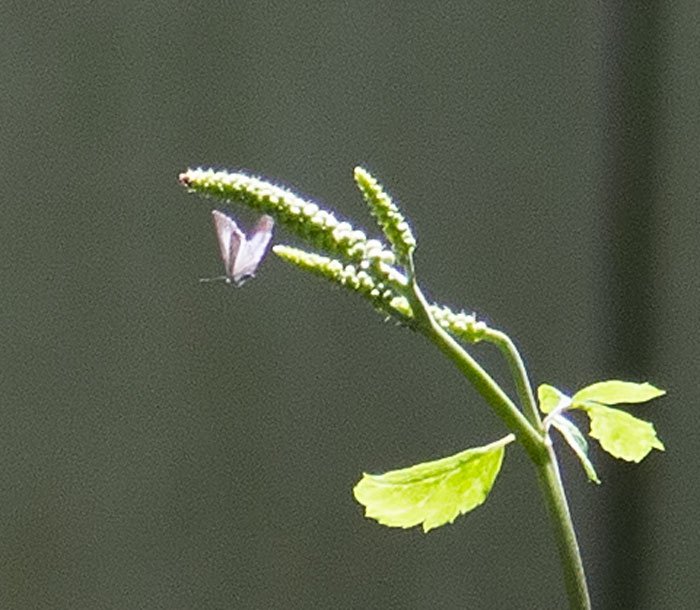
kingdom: Animalia
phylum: Arthropoda
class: Insecta
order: Lepidoptera
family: Lycaenidae
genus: Celastrina
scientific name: Celastrina neglectamajor
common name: Appalachian Azure
